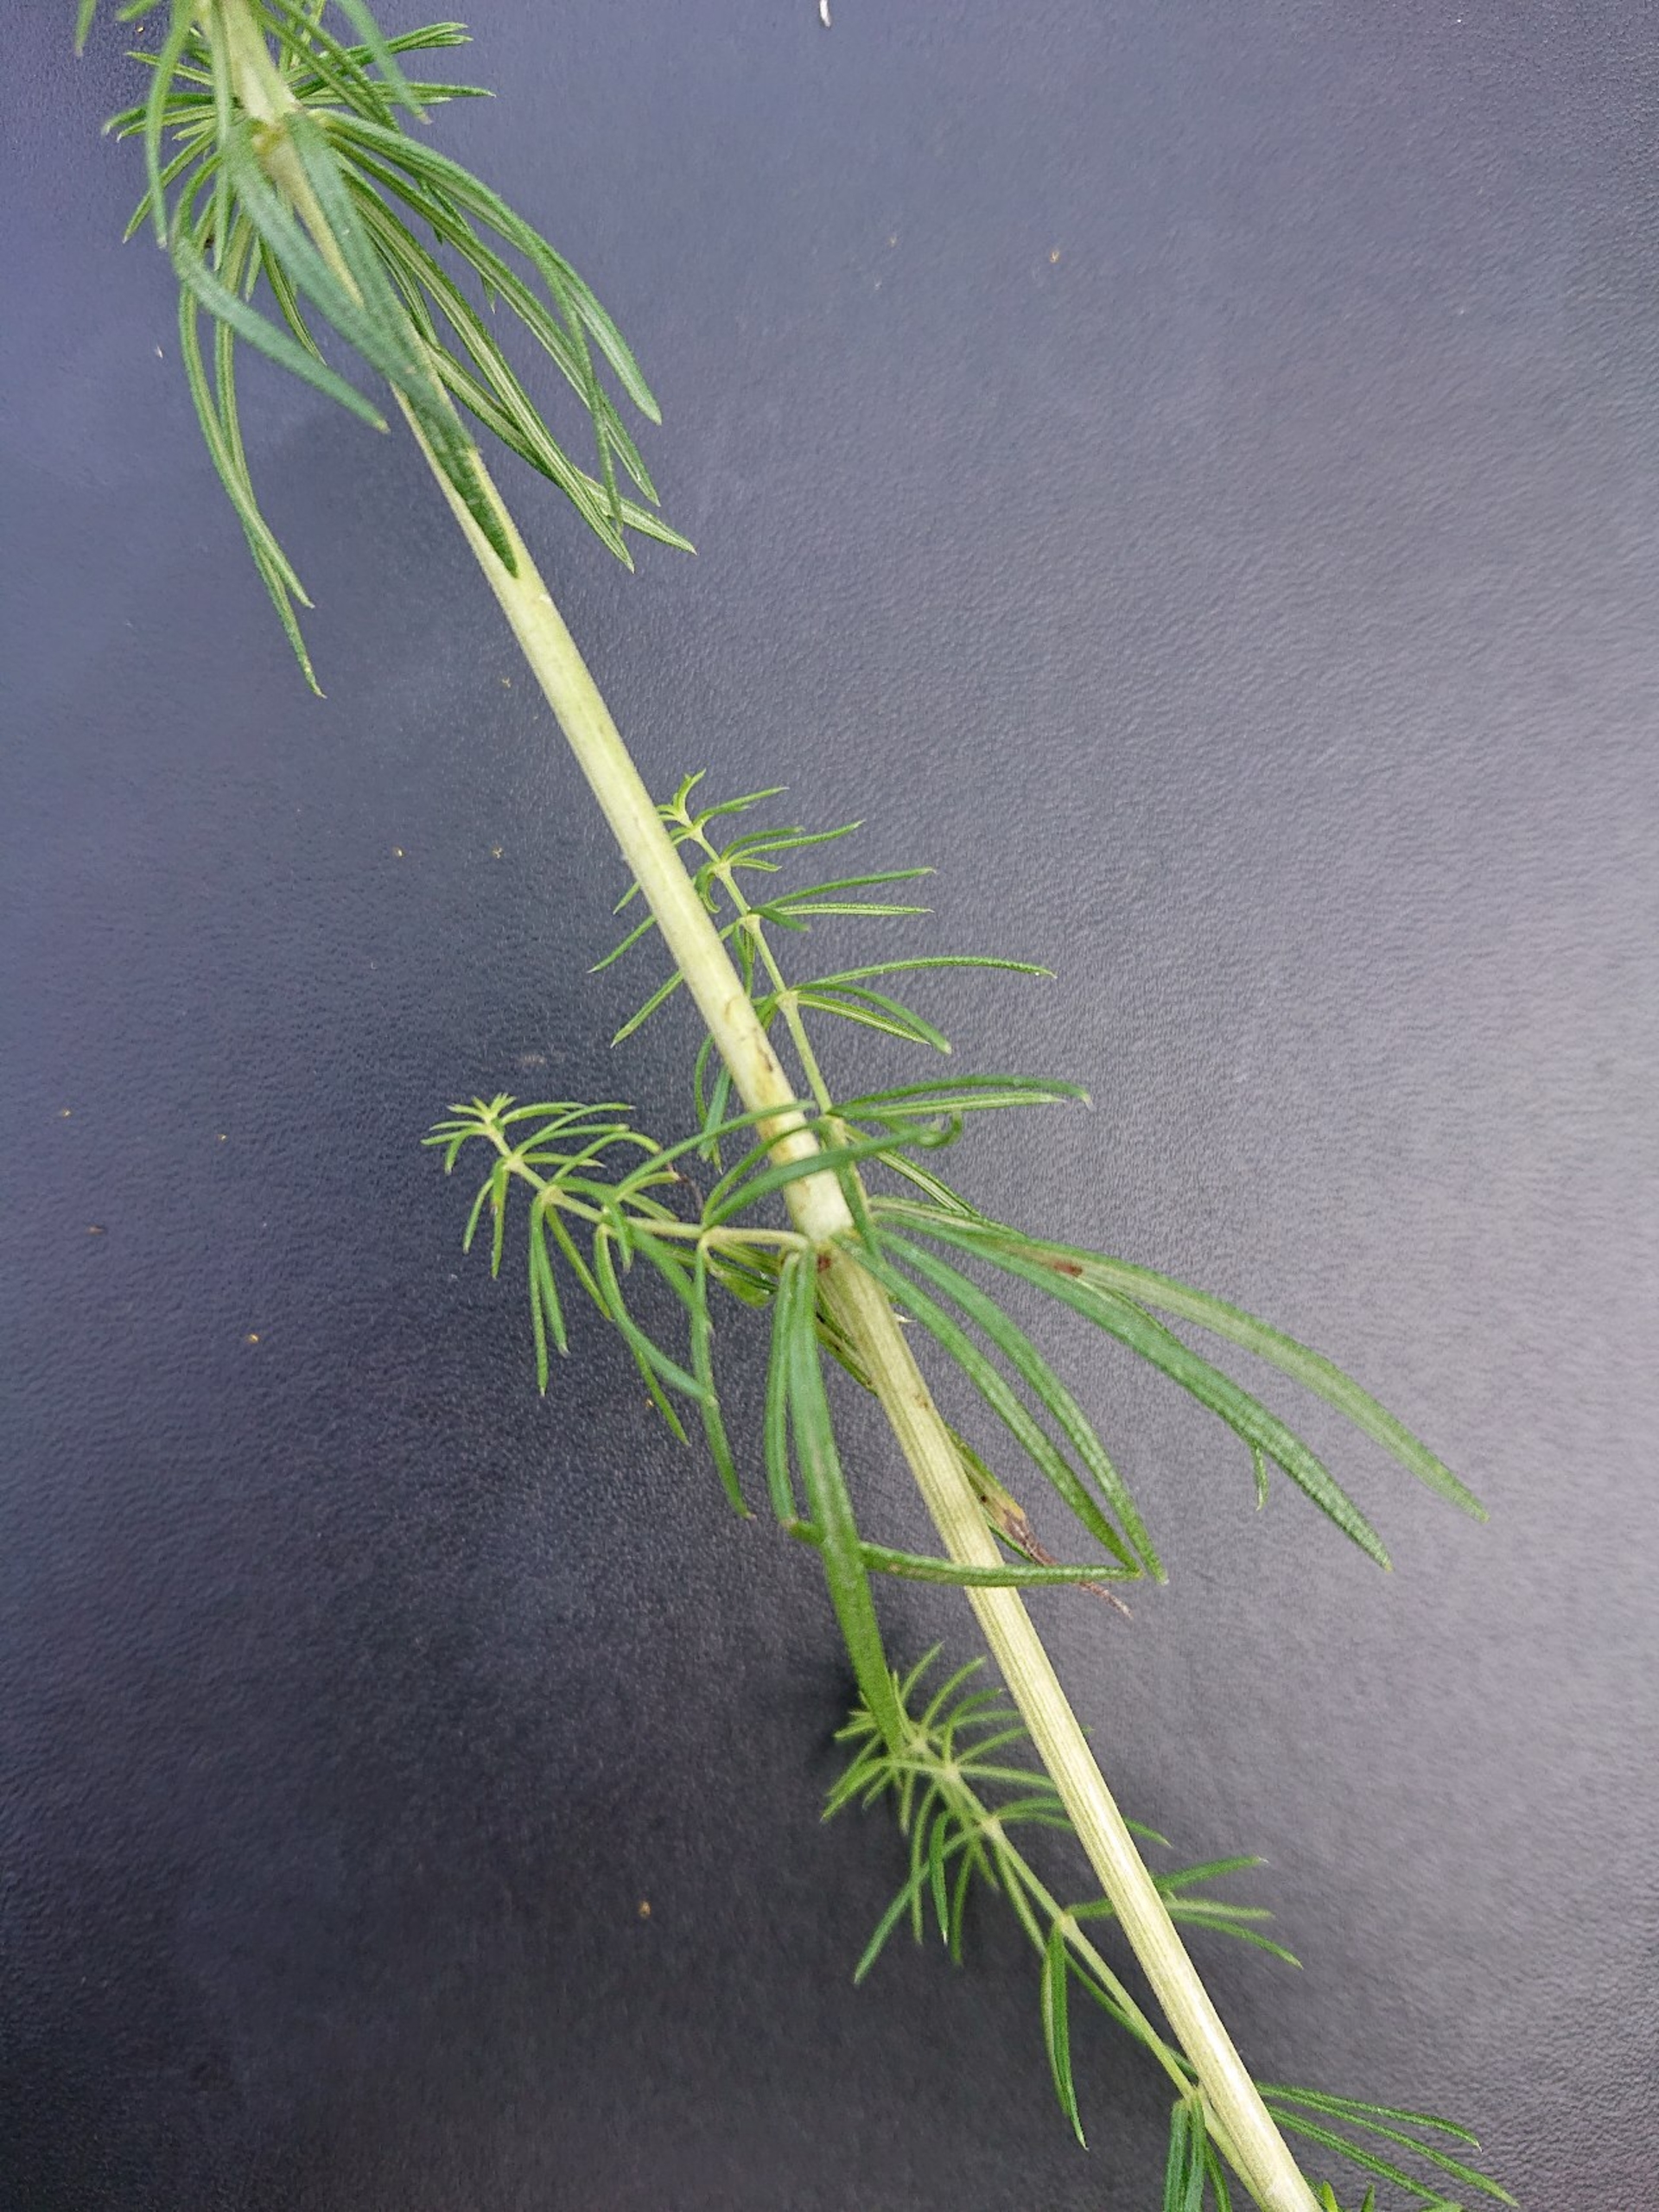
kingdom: Plantae
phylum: Tracheophyta
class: Magnoliopsida
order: Gentianales
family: Rubiaceae
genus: Galium
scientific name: Galium verum
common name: Gul snerre
